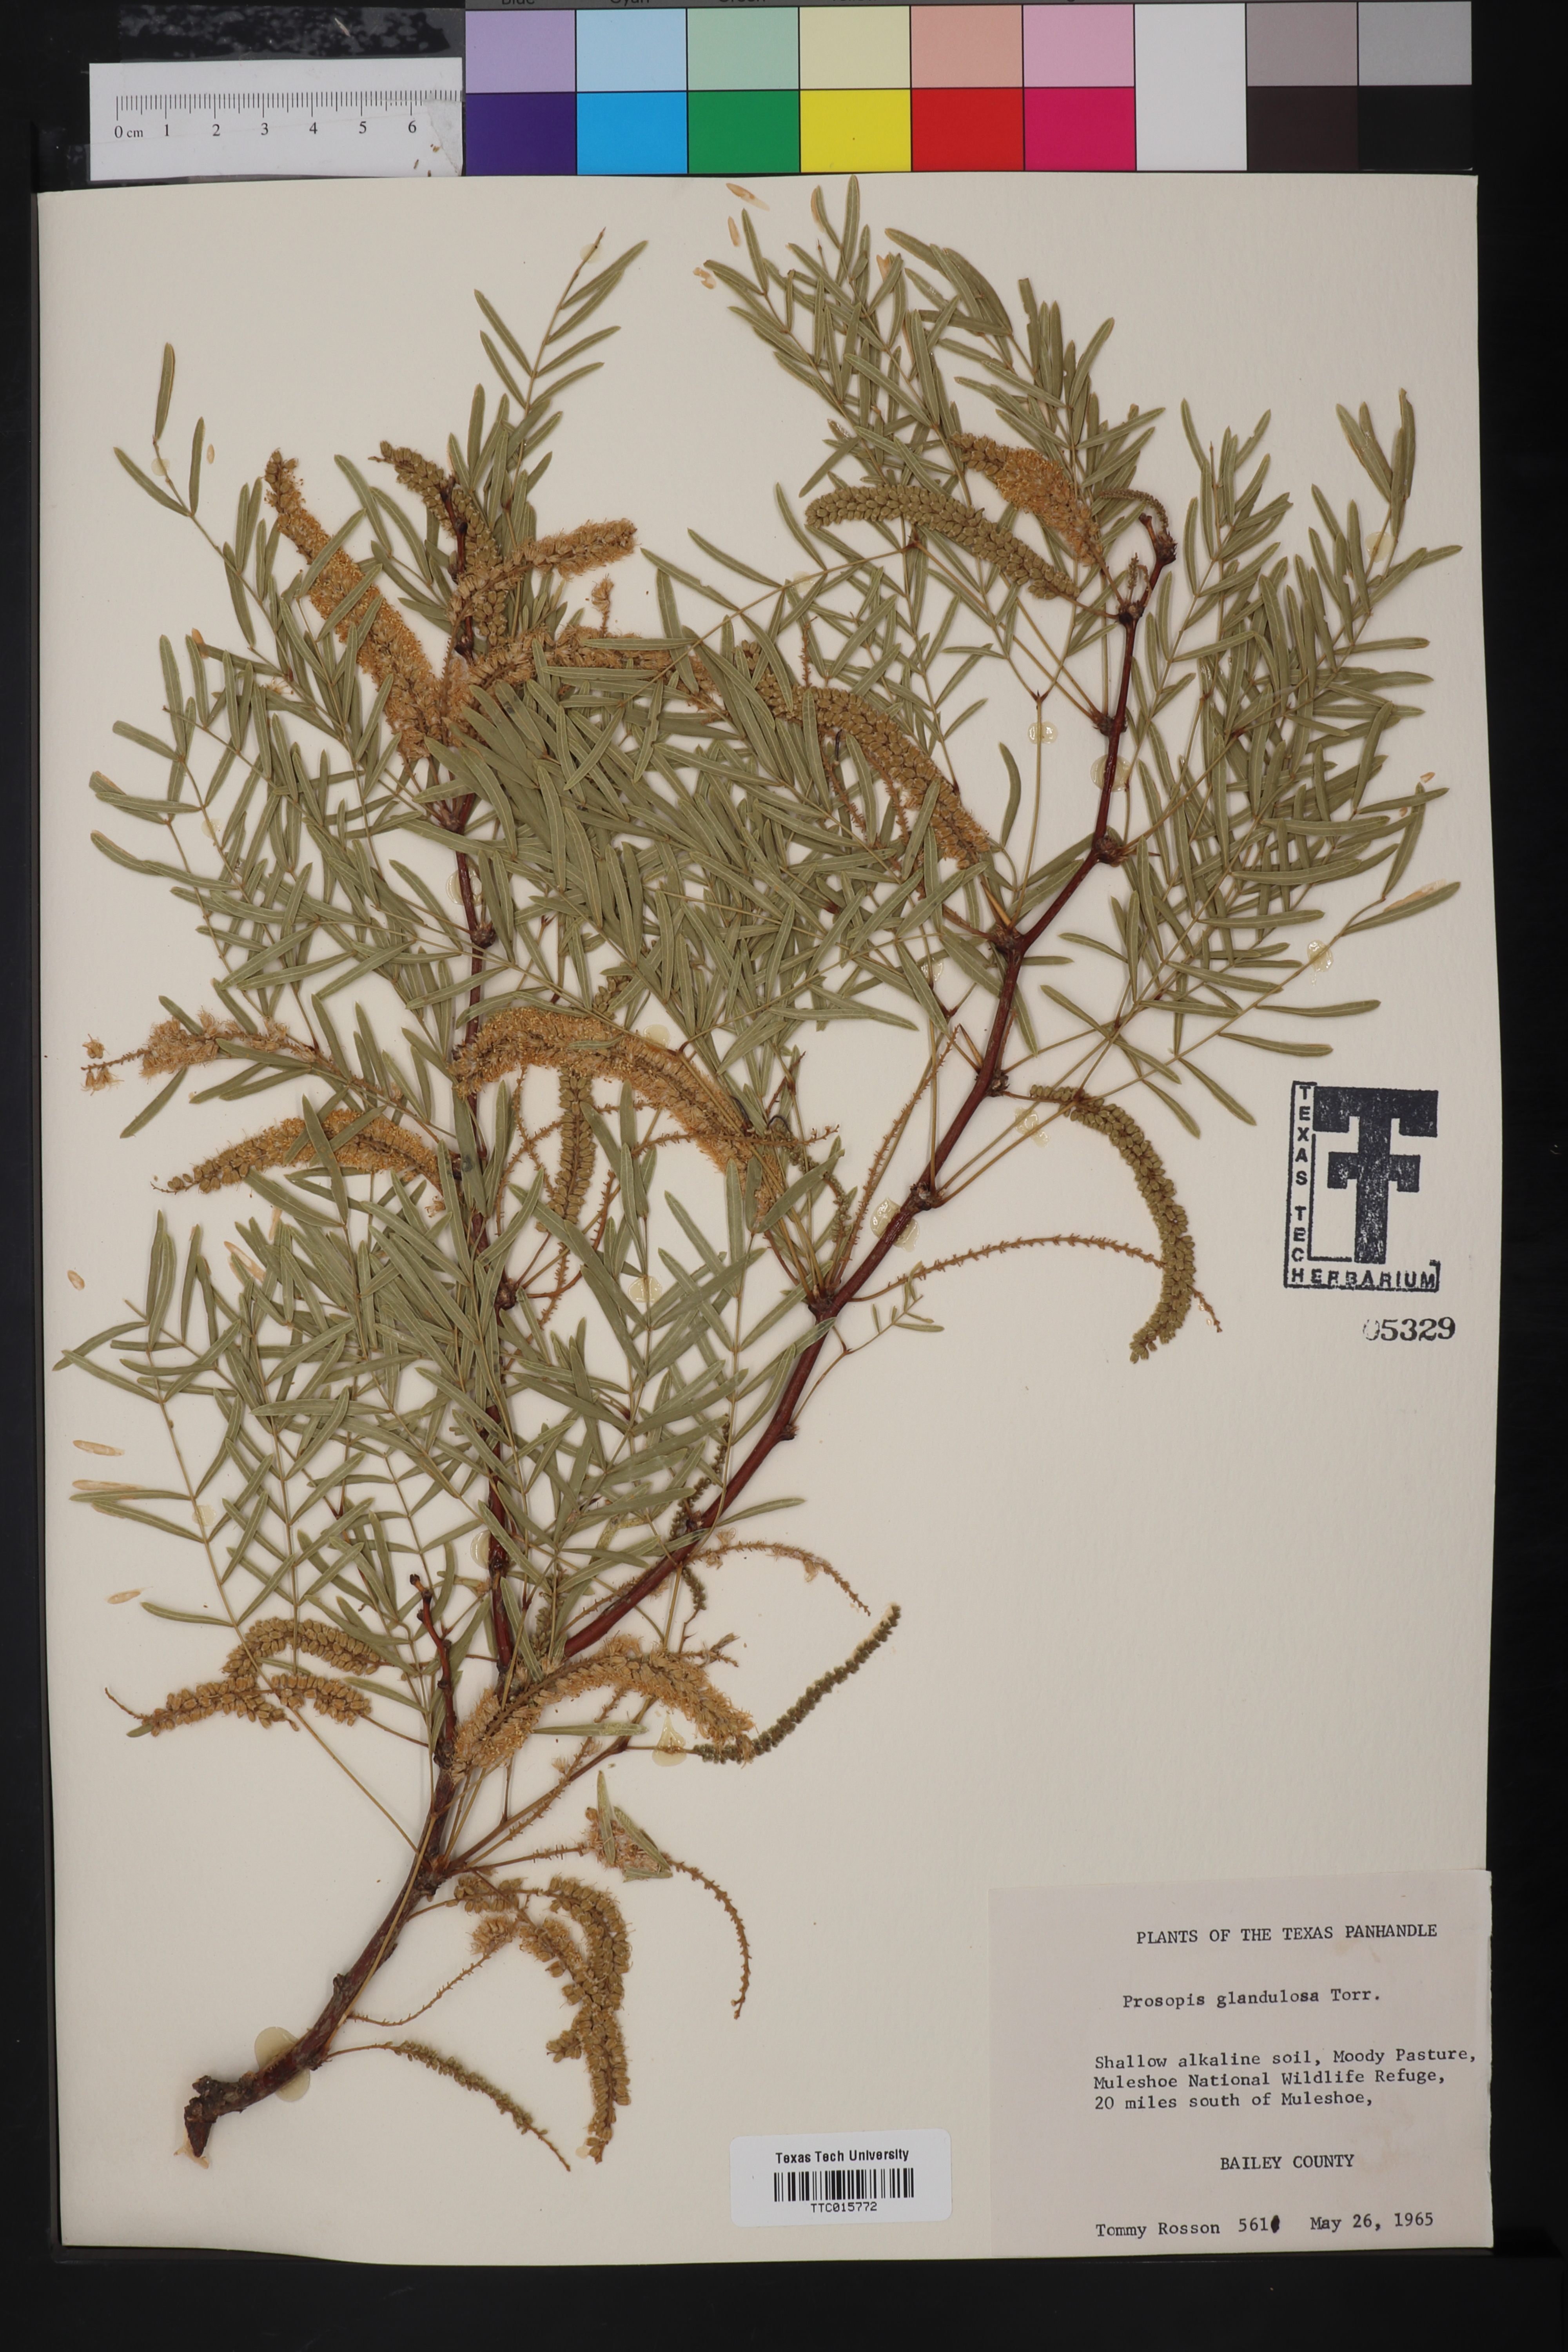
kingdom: Plantae
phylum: Tracheophyta
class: Magnoliopsida
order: Fabales
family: Fabaceae
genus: Prosopis
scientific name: Prosopis glandulosa
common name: Honey mesquite
